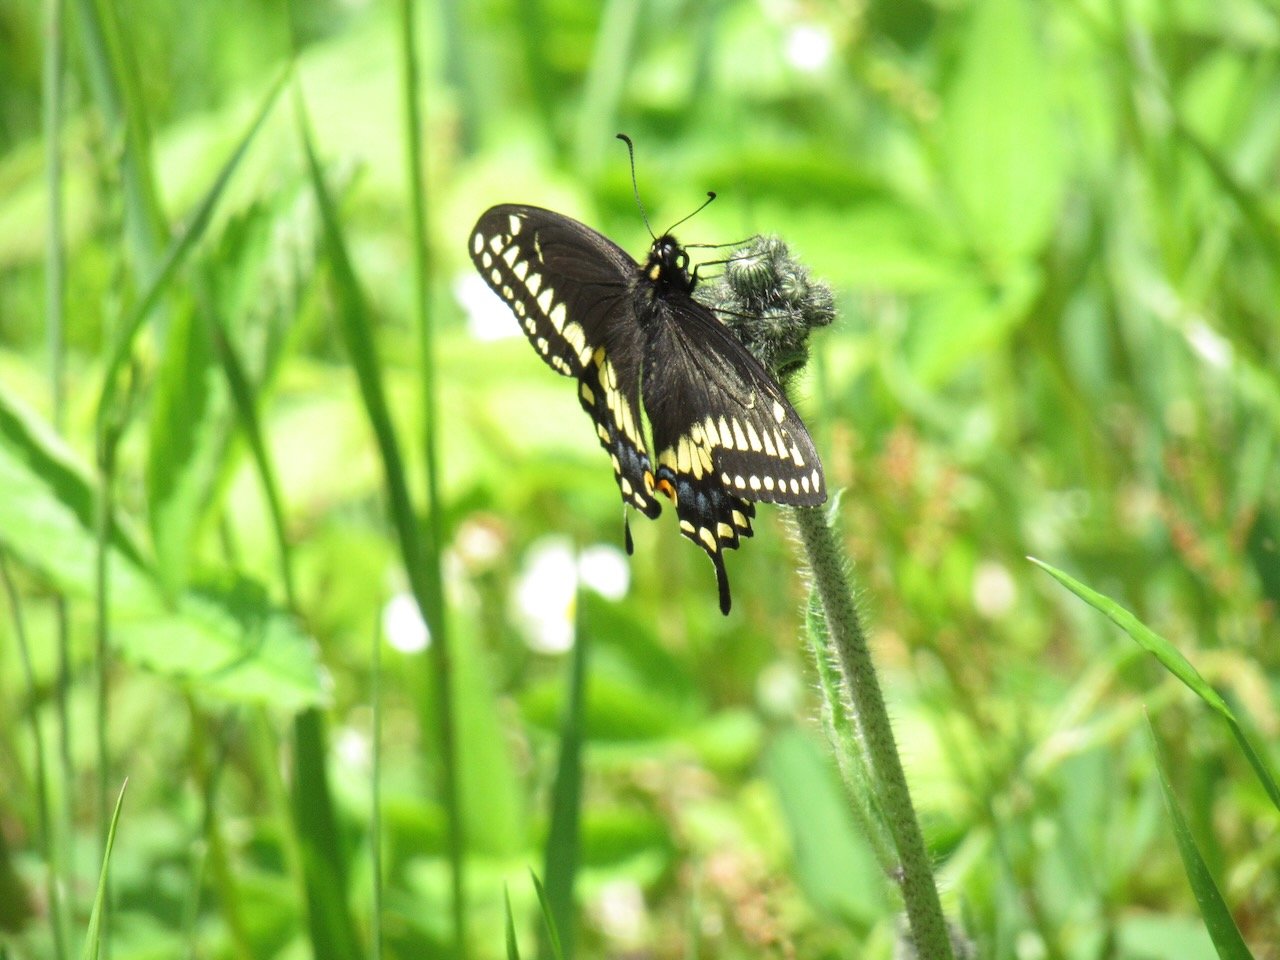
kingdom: Animalia
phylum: Arthropoda
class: Insecta
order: Lepidoptera
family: Papilionidae
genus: Papilio
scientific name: Papilio polyxenes
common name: Black Swallowtail
